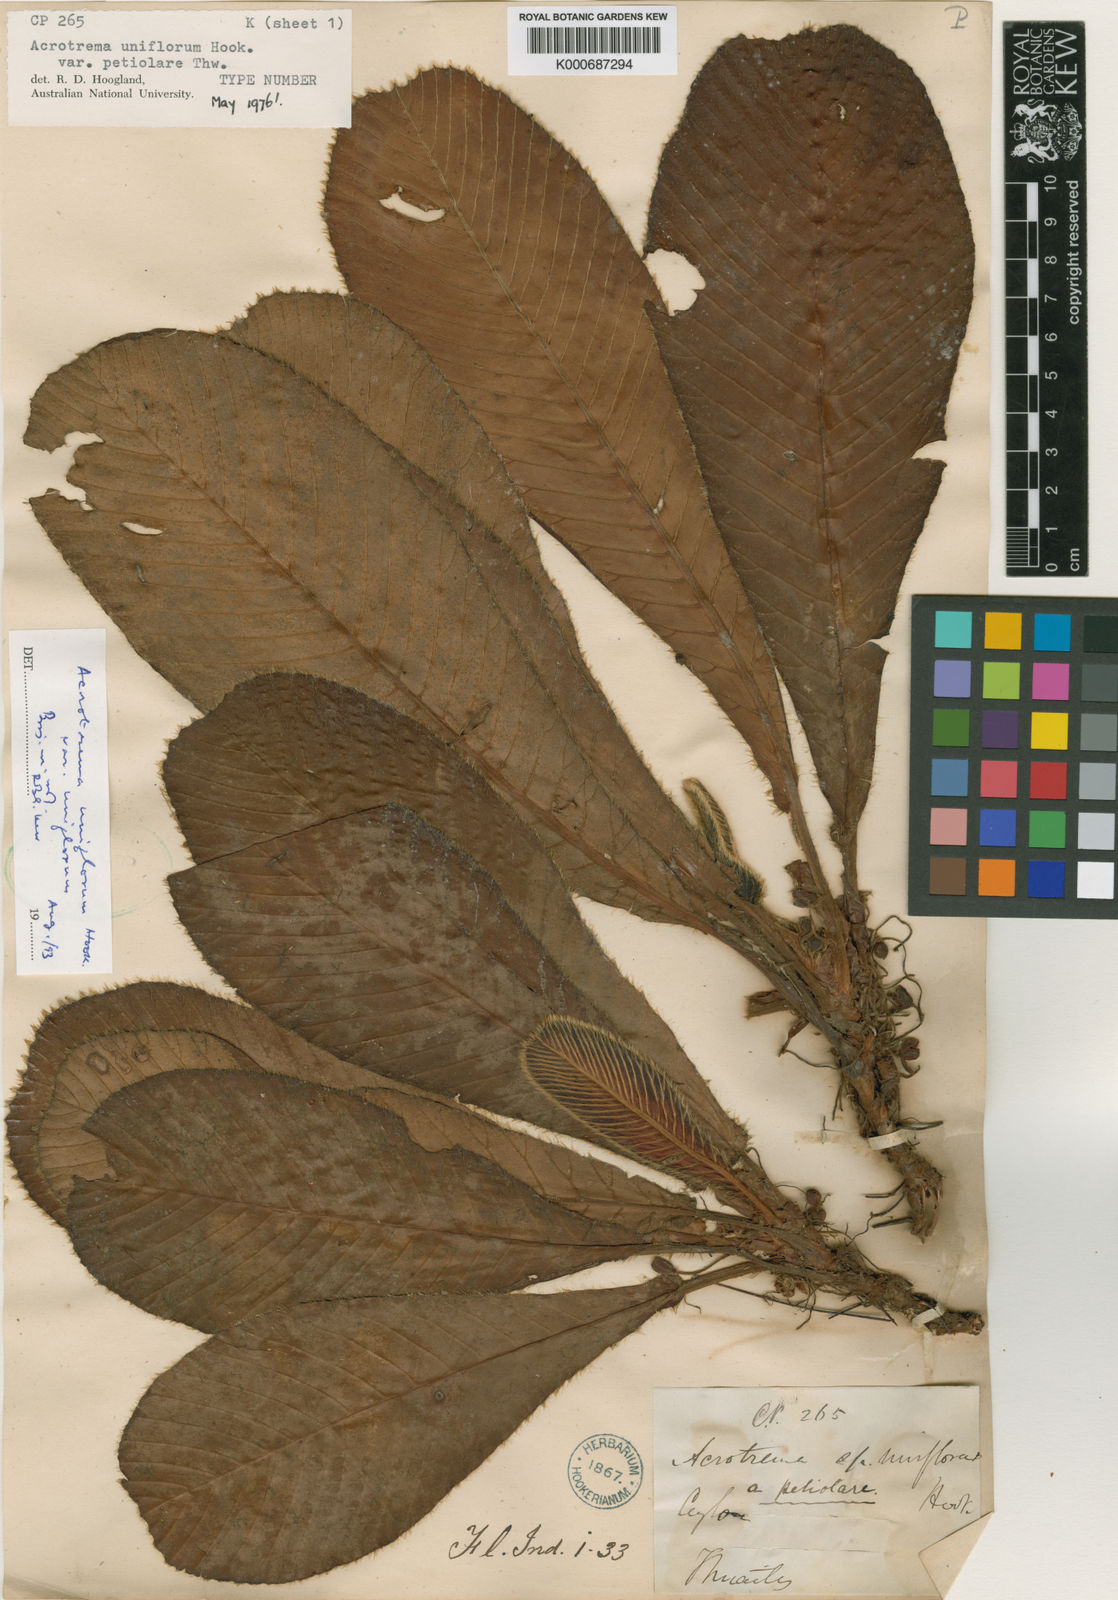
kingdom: Plantae
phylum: Tracheophyta
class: Magnoliopsida
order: Dilleniales
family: Dilleniaceae
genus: Acrotrema
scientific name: Acrotrema uniflorum
